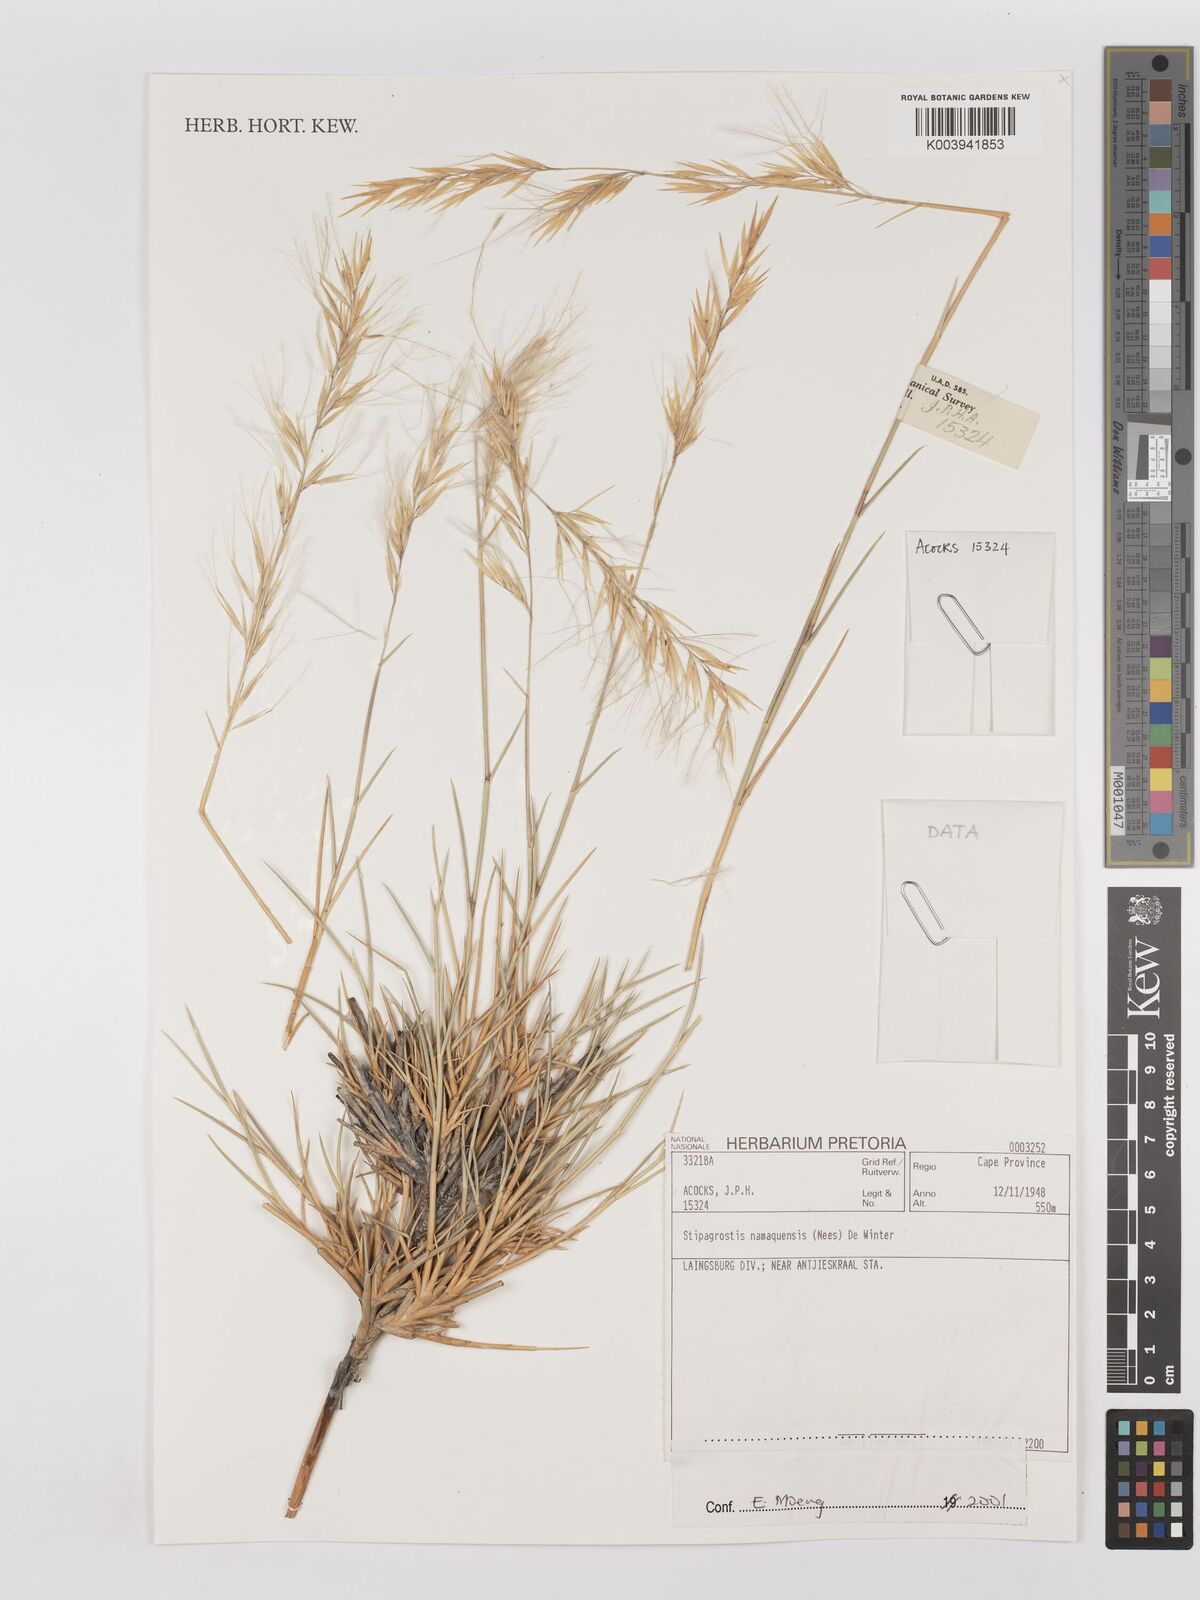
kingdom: Plantae
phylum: Tracheophyta
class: Liliopsida
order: Poales
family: Poaceae
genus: Stipagrostis
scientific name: Stipagrostis namaquensis
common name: River bushman grass
